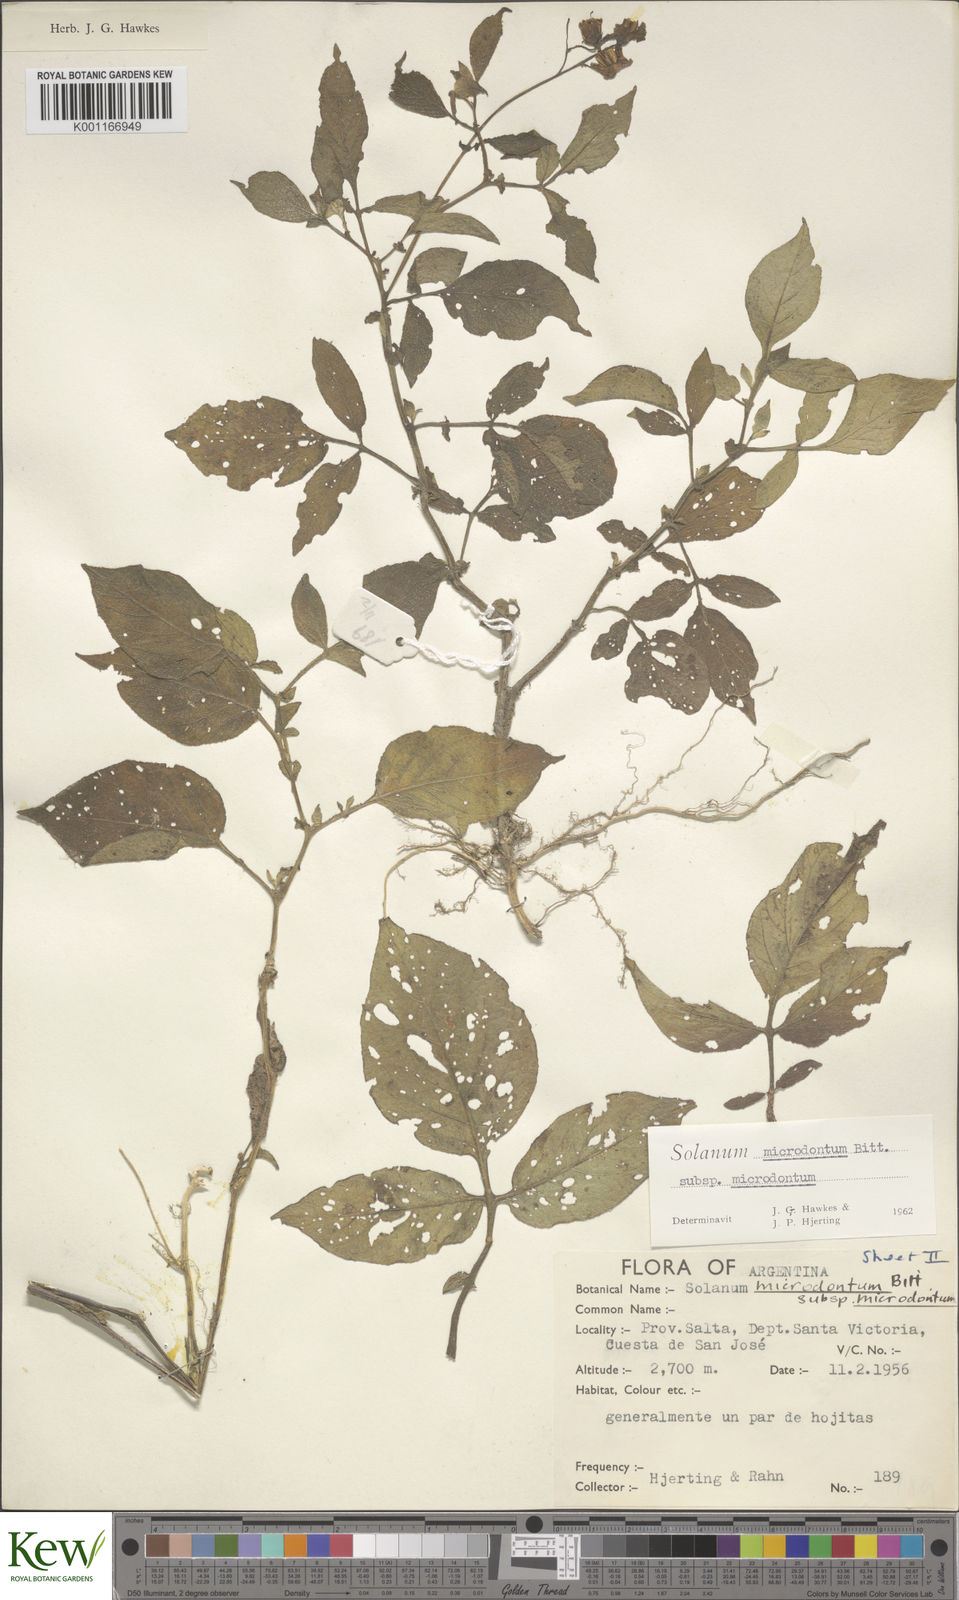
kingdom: Plantae
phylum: Tracheophyta
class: Magnoliopsida
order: Solanales
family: Solanaceae
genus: Solanum
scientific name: Solanum microdontum
